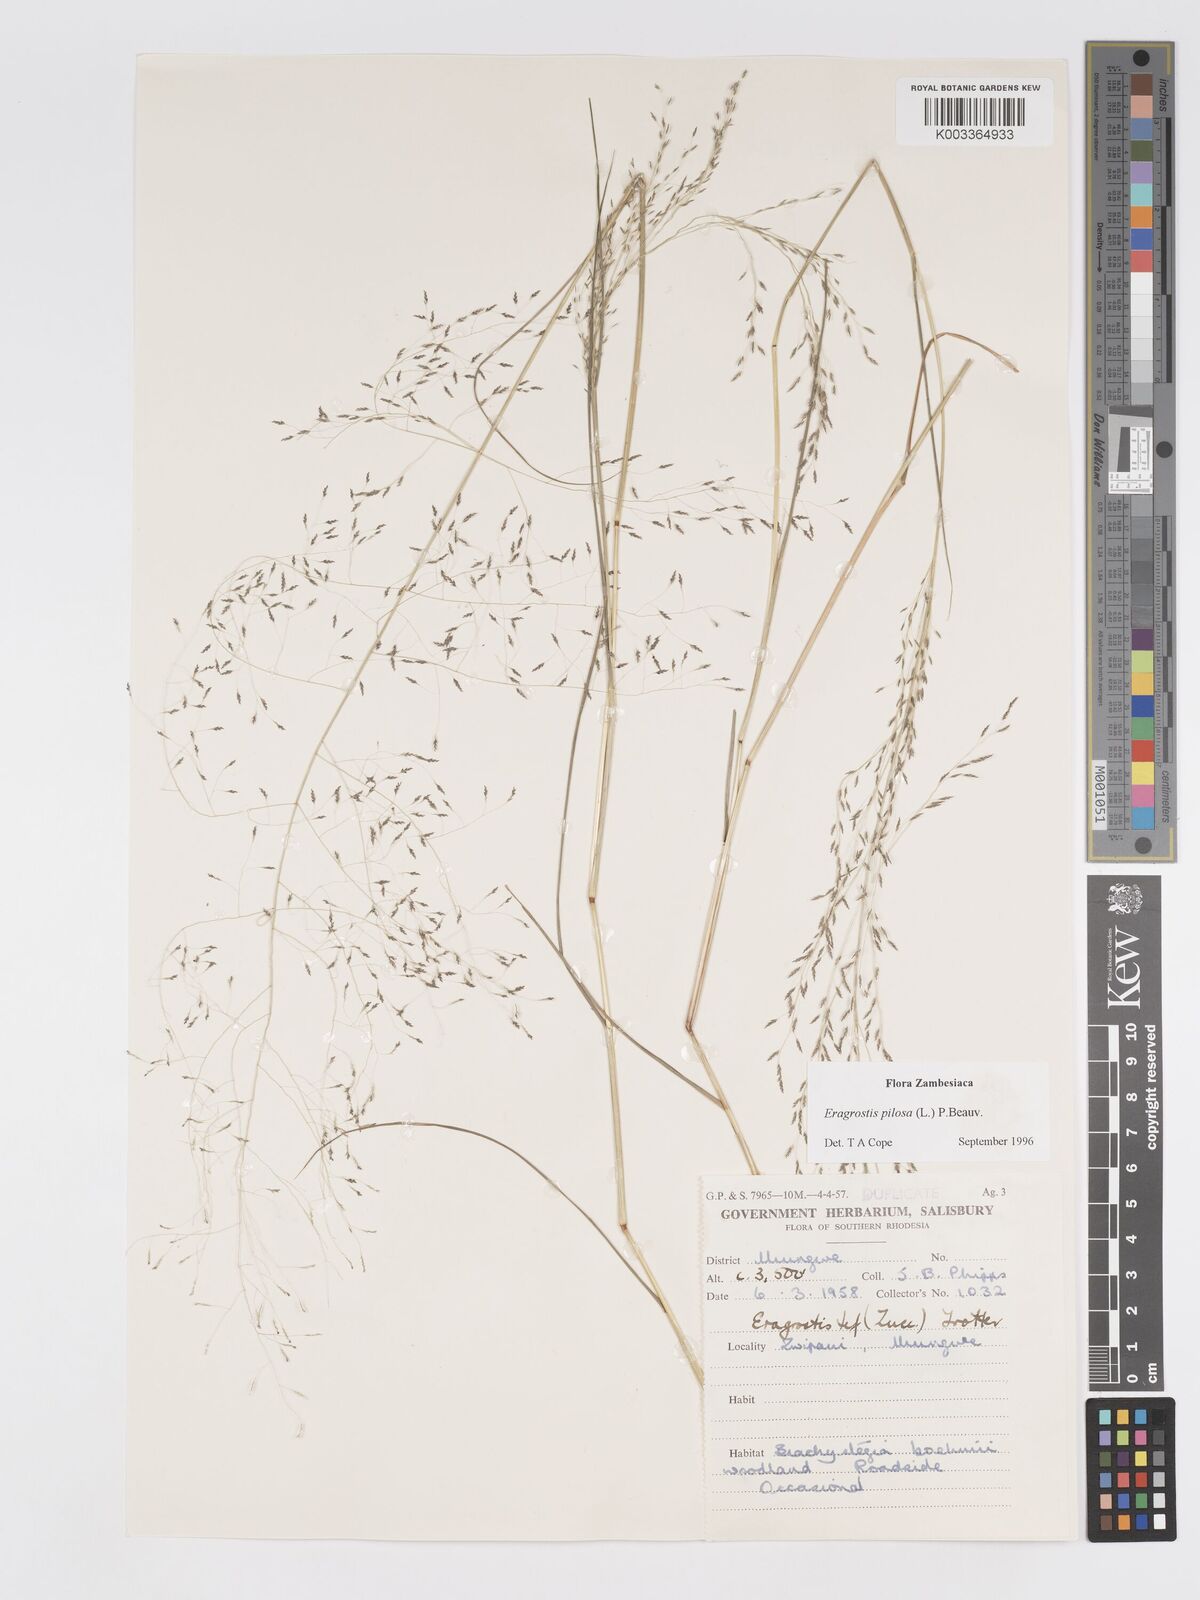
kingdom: Plantae
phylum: Tracheophyta
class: Liliopsida
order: Poales
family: Poaceae
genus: Eragrostis
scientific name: Eragrostis pilosa
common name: Indian lovegrass
